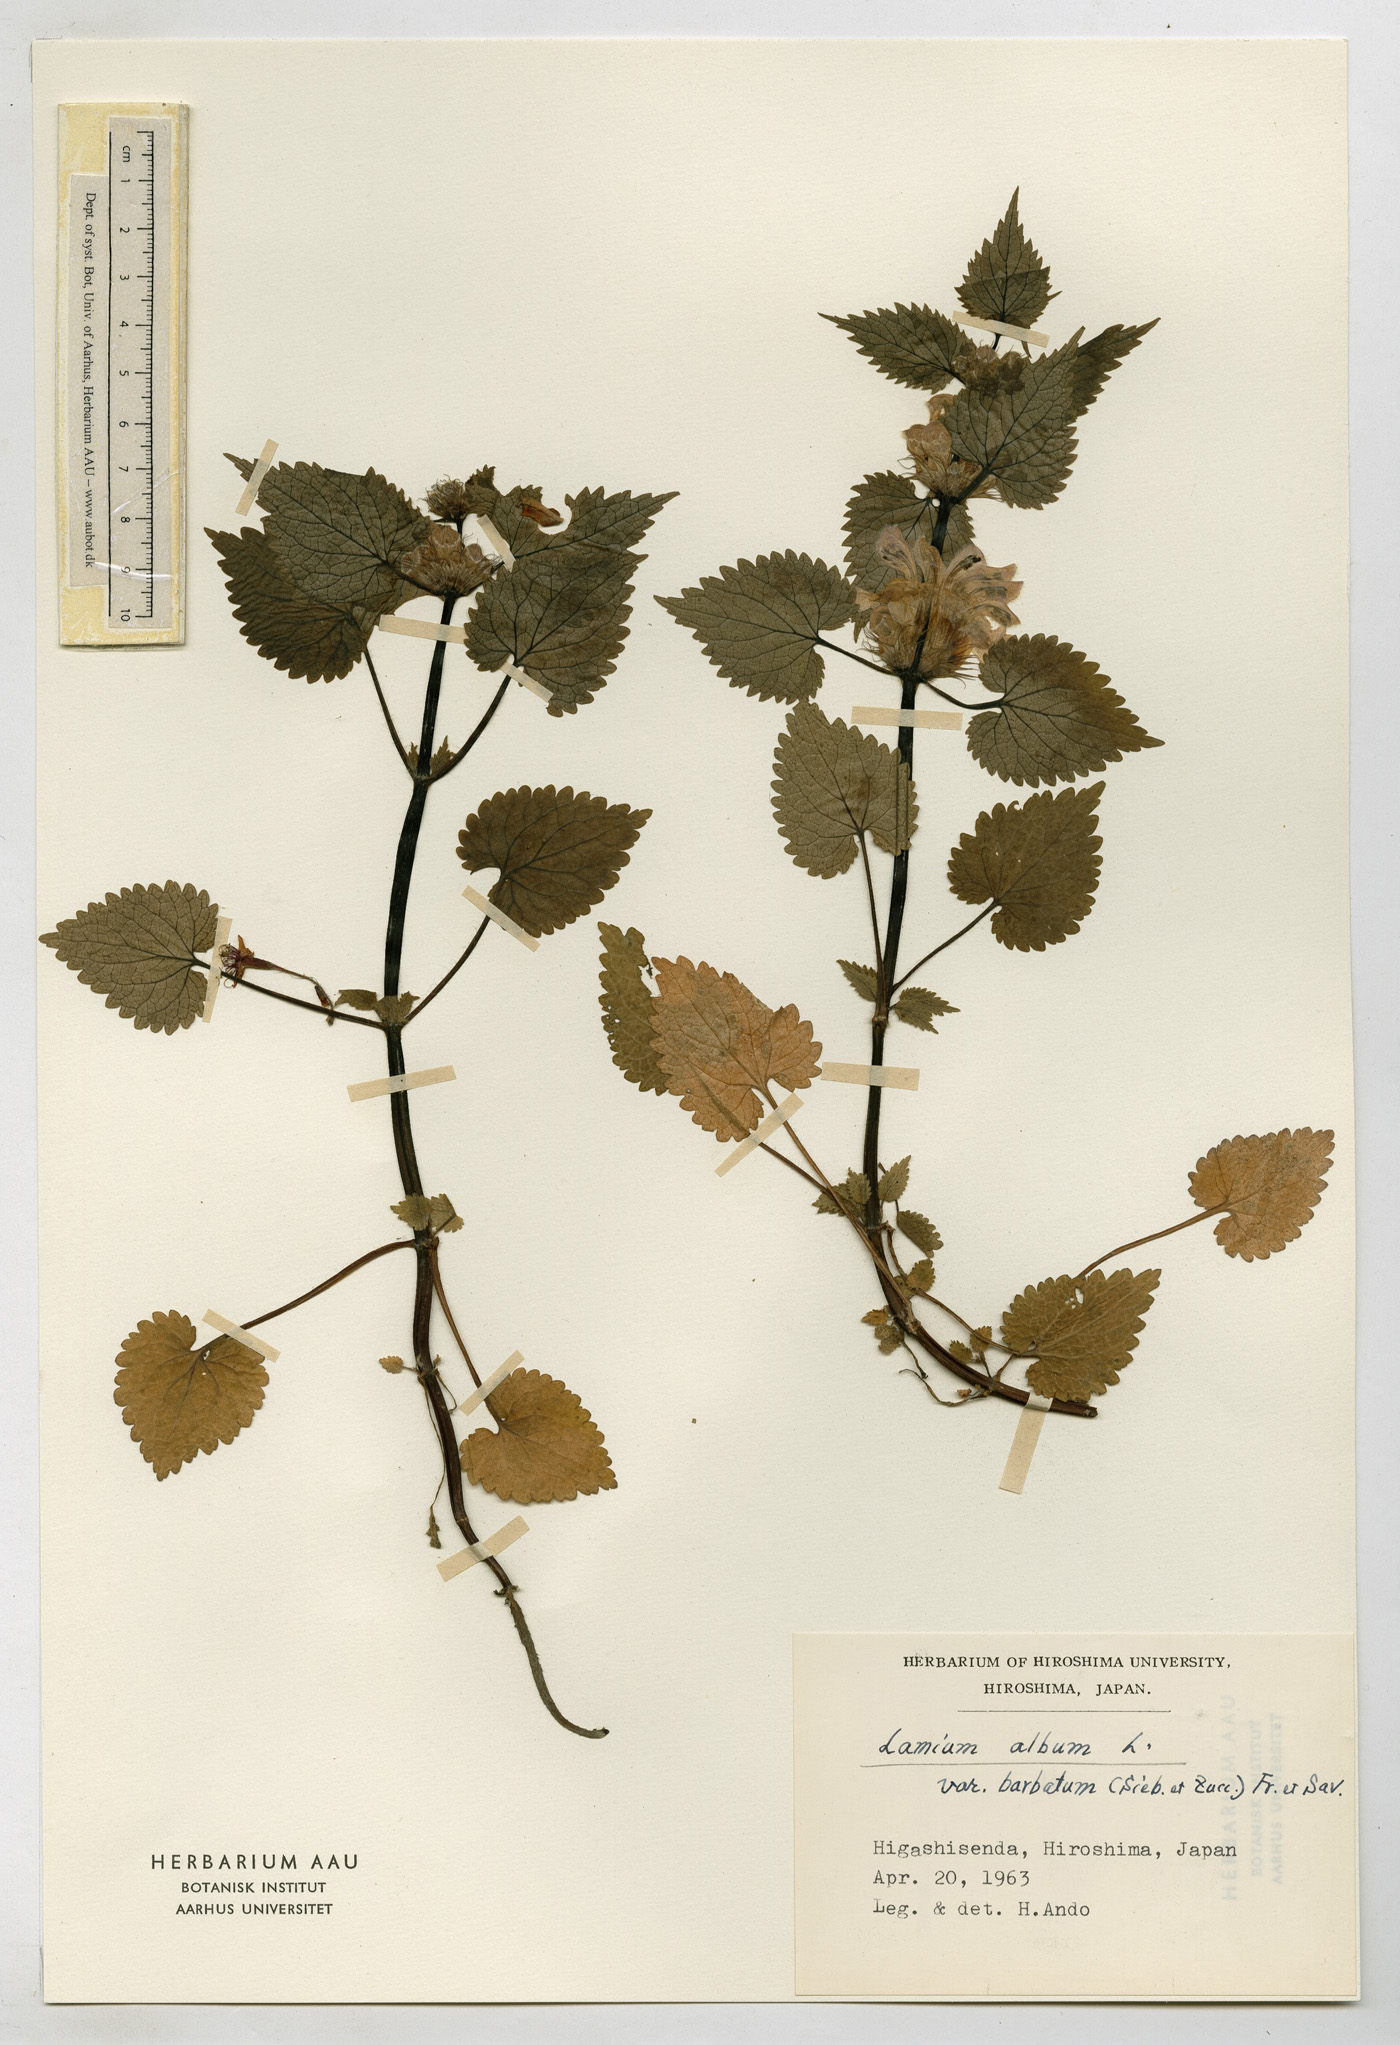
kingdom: Plantae
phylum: Tracheophyta
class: Magnoliopsida
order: Lamiales
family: Lamiaceae
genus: Lamium
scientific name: Lamium album
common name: White dead-nettle
